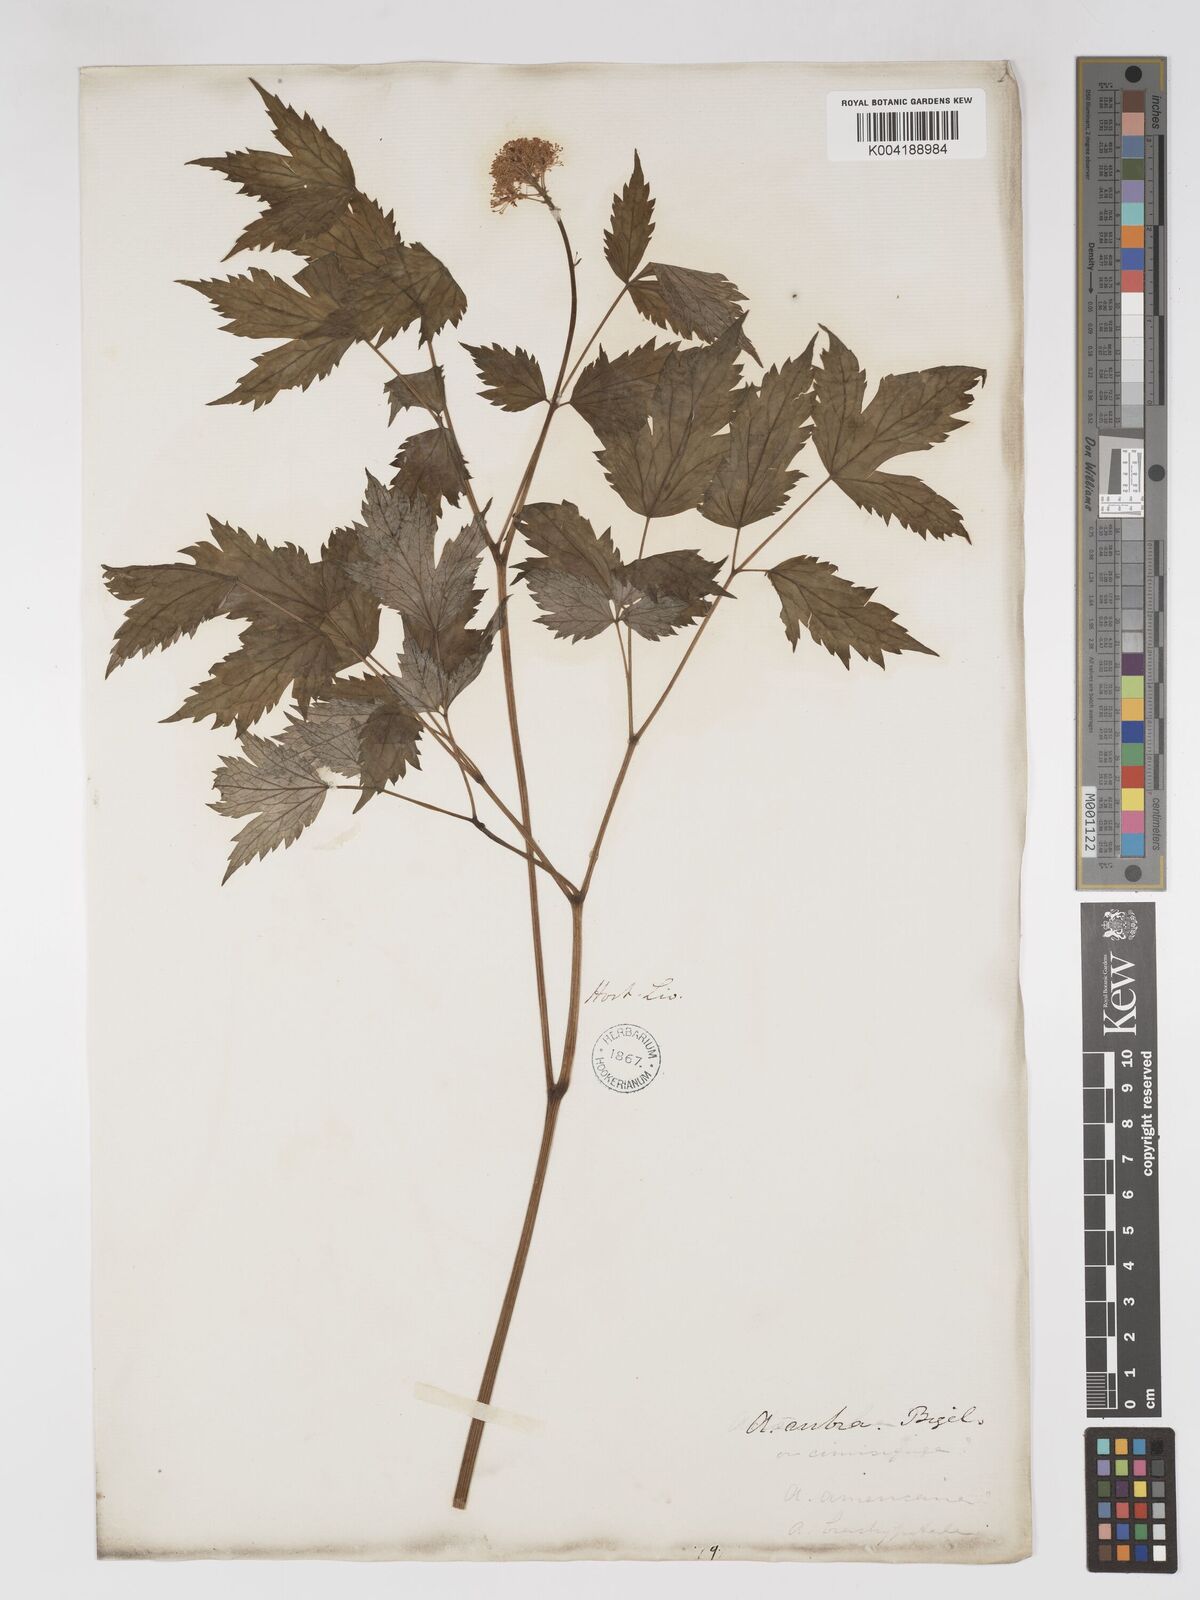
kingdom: Plantae
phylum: Tracheophyta
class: Magnoliopsida
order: Ranunculales
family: Ranunculaceae
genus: Actaea
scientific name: Actaea
